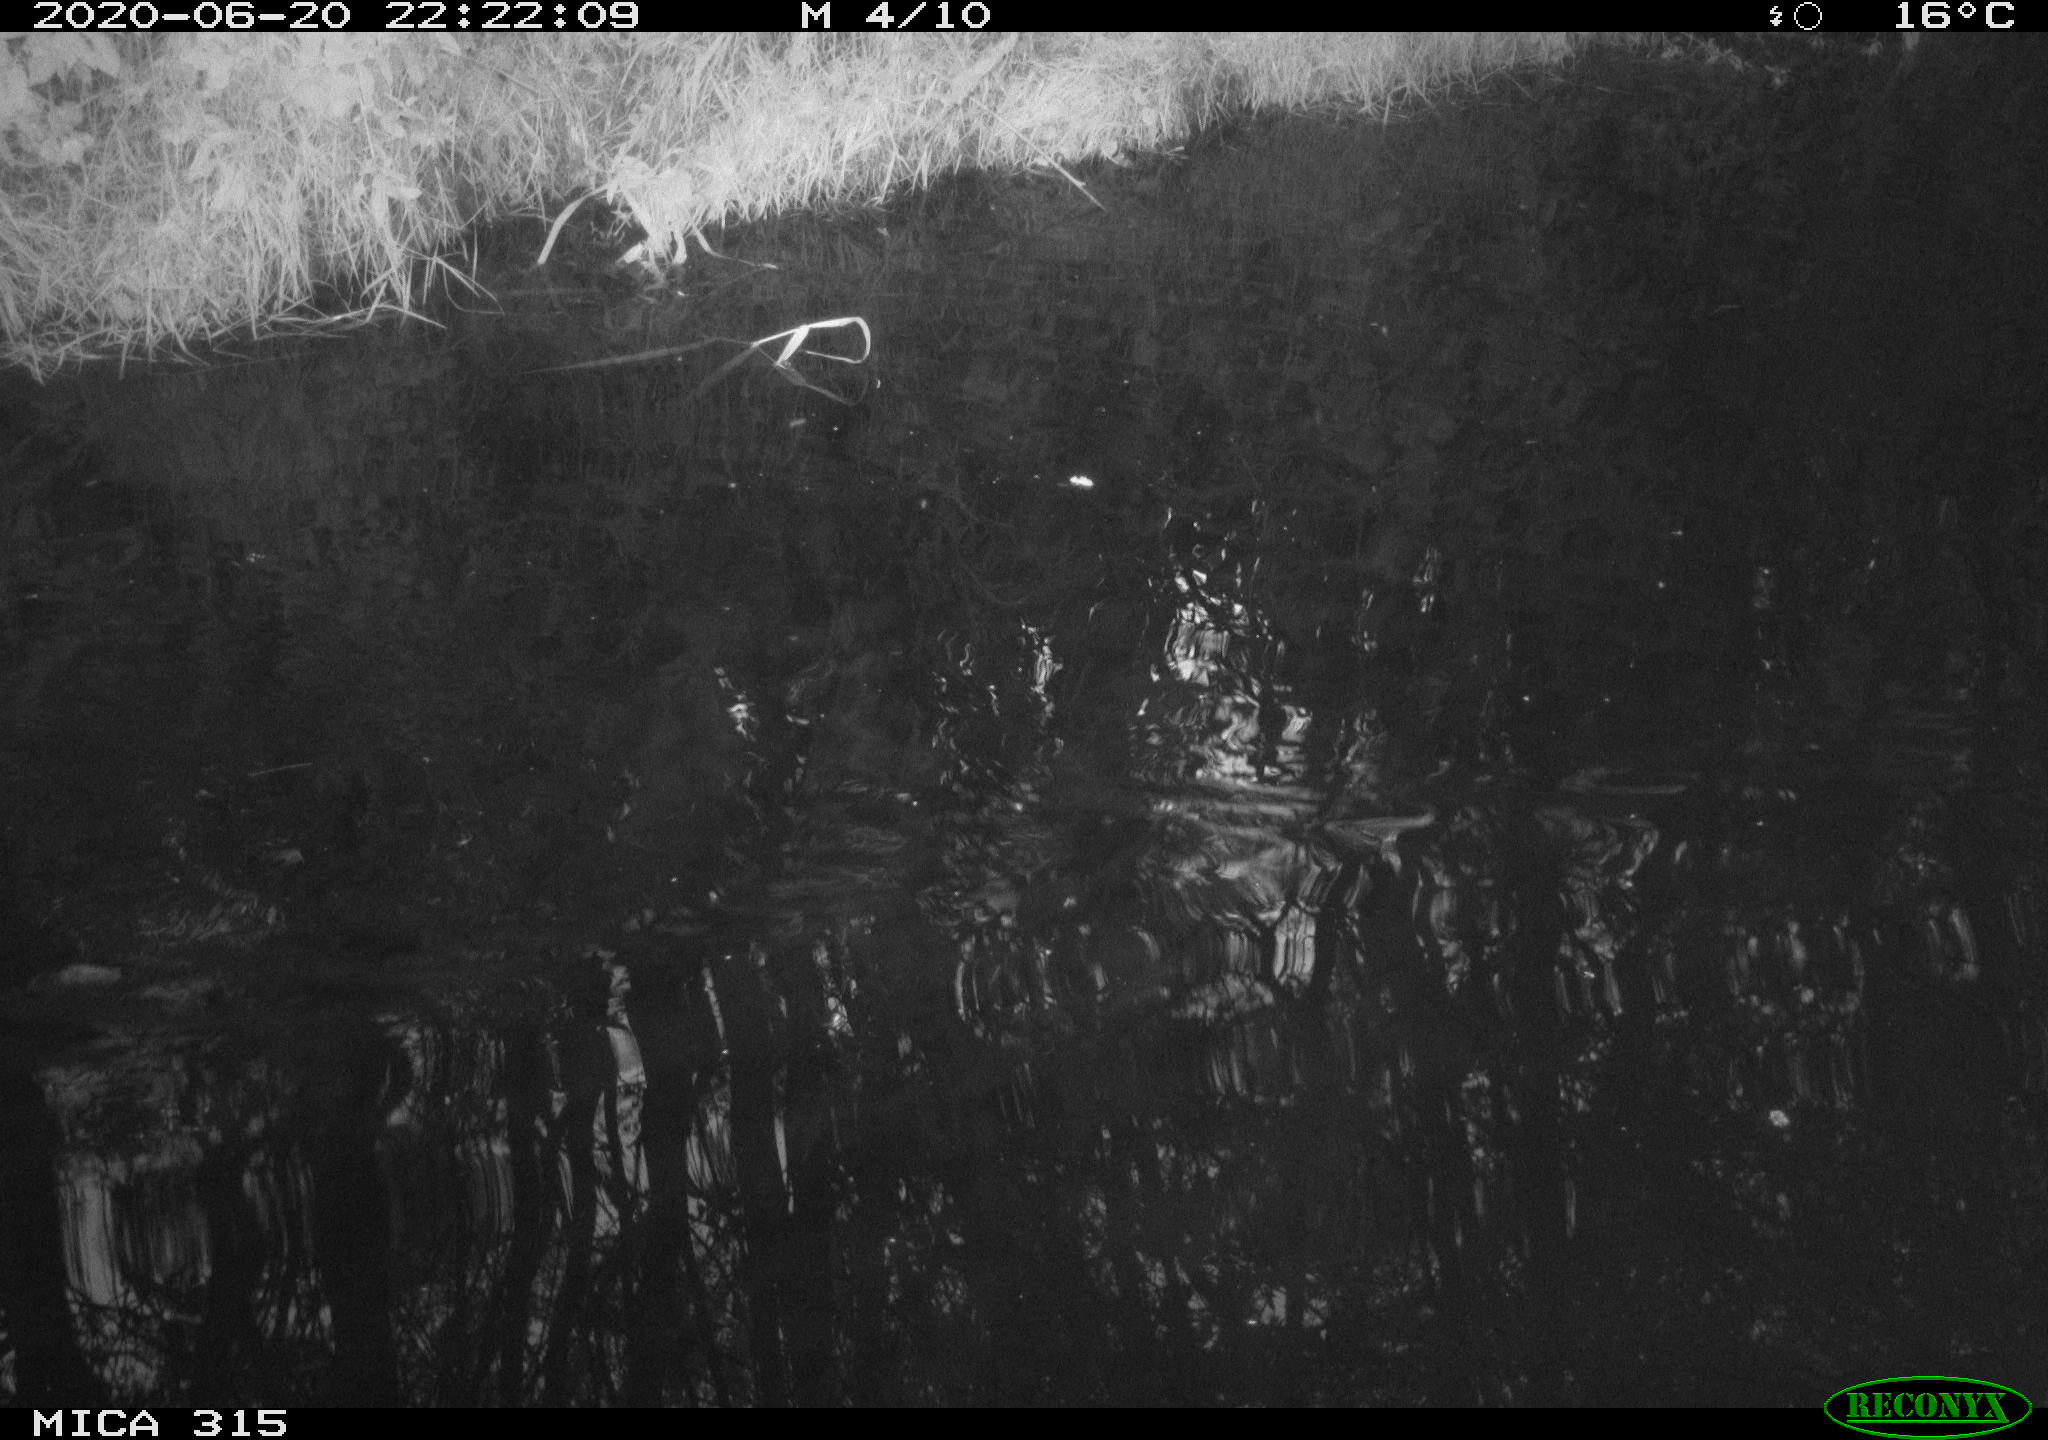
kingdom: Animalia
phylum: Chordata
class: Aves
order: Anseriformes
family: Anatidae
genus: Anas
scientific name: Anas platyrhynchos
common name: Mallard
